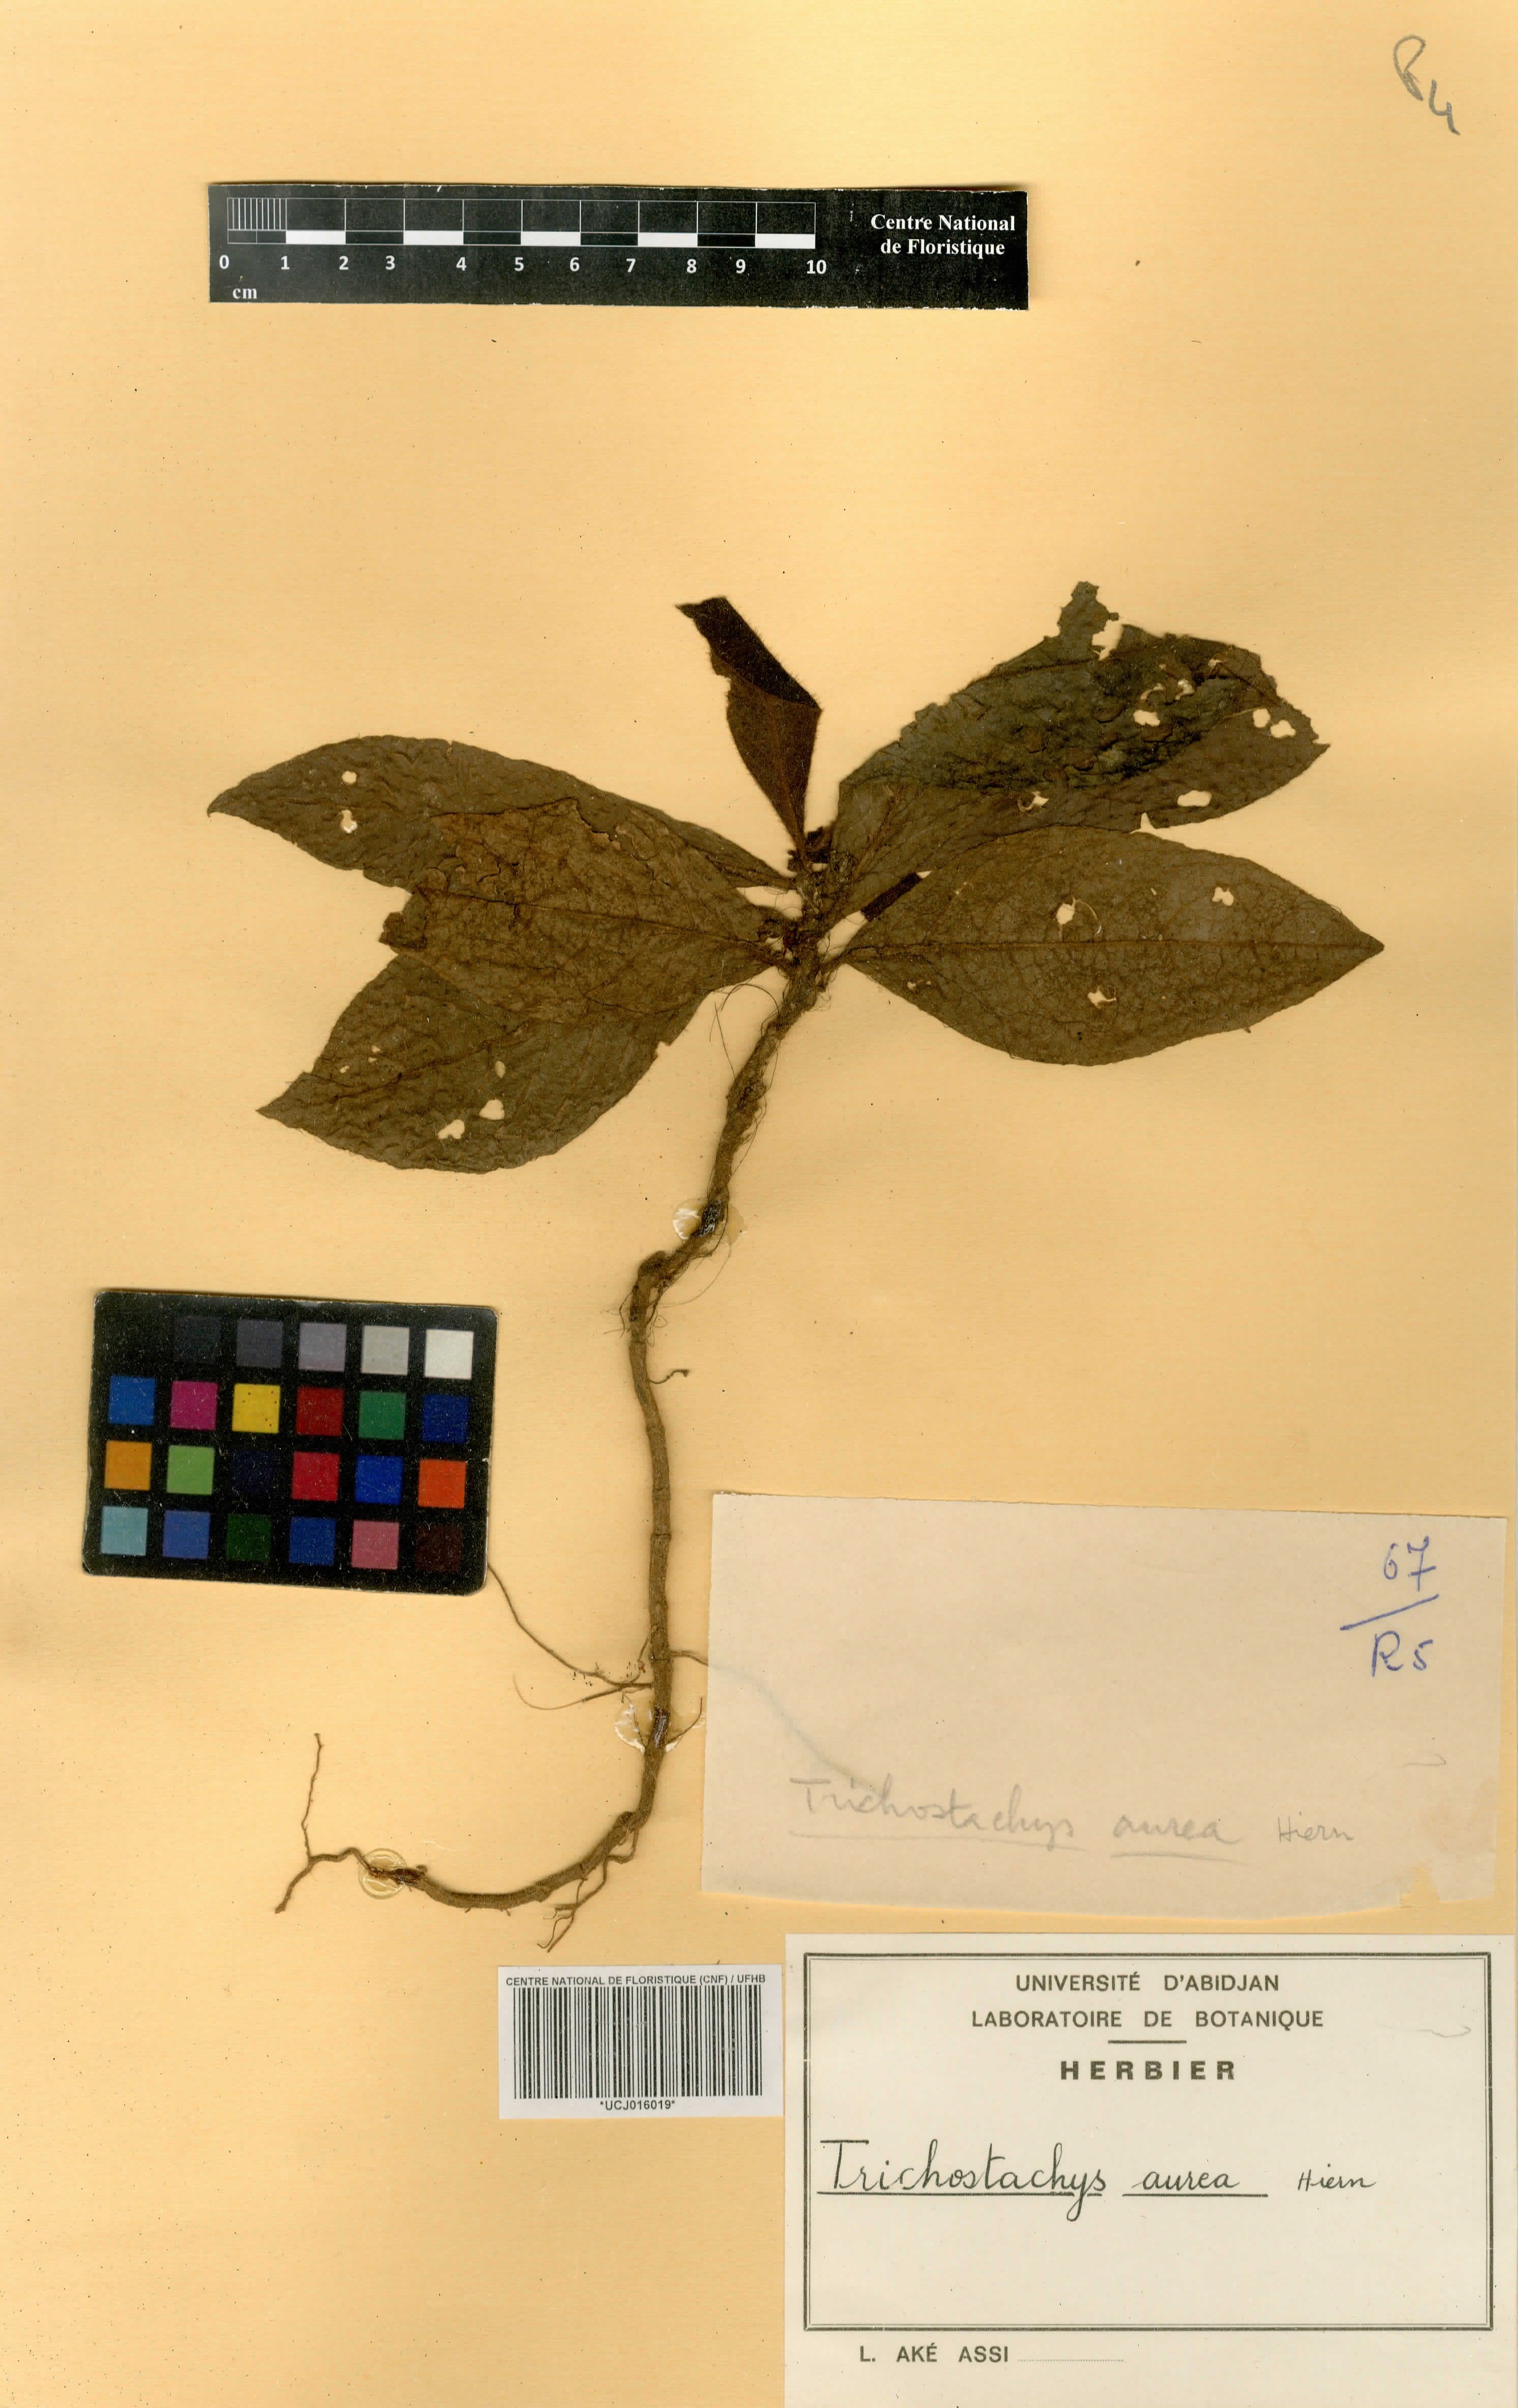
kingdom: Plantae
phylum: Tracheophyta
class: Magnoliopsida
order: Gentianales
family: Rubiaceae
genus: Trichostachys
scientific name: Trichostachys aurea
